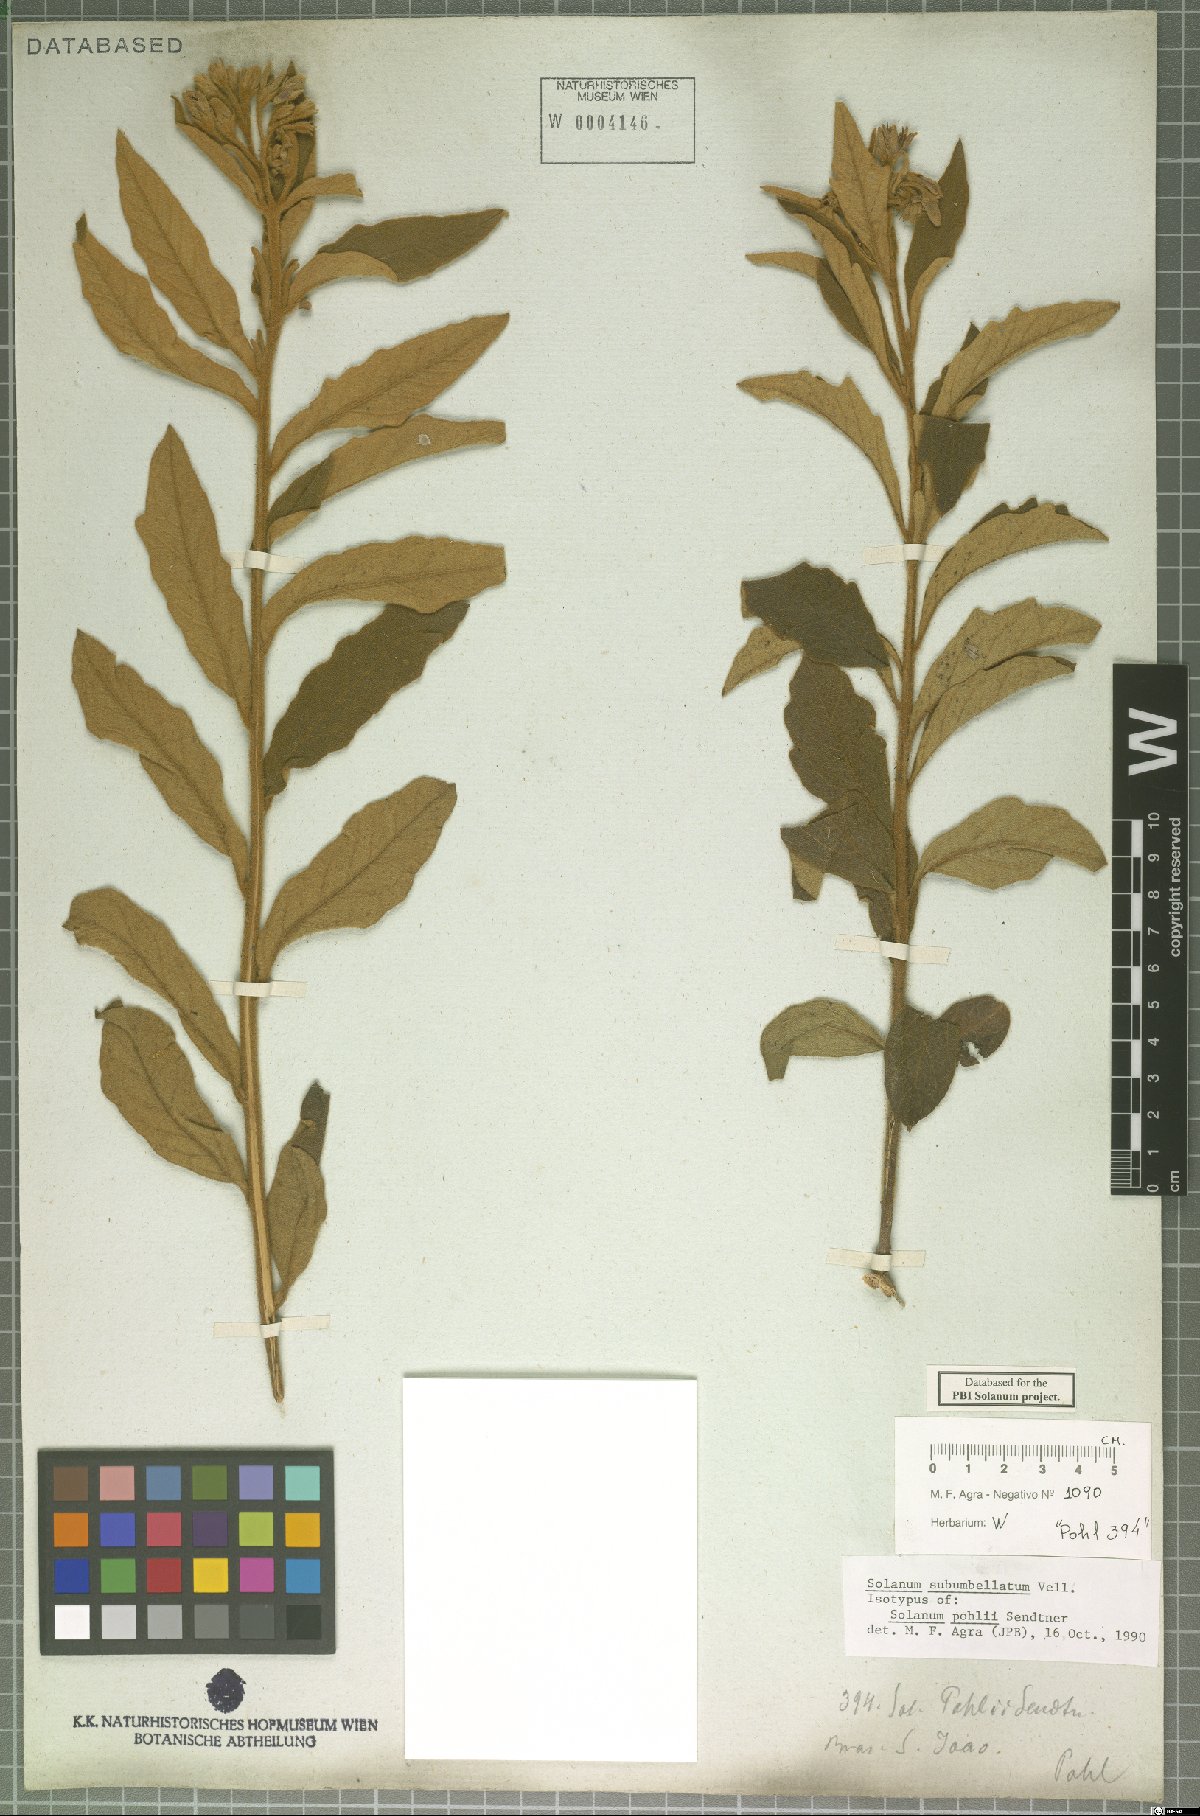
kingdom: Plantae
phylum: Tracheophyta
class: Magnoliopsida
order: Solanales
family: Solanaceae
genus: Solanum
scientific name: Solanum subumbellatum
